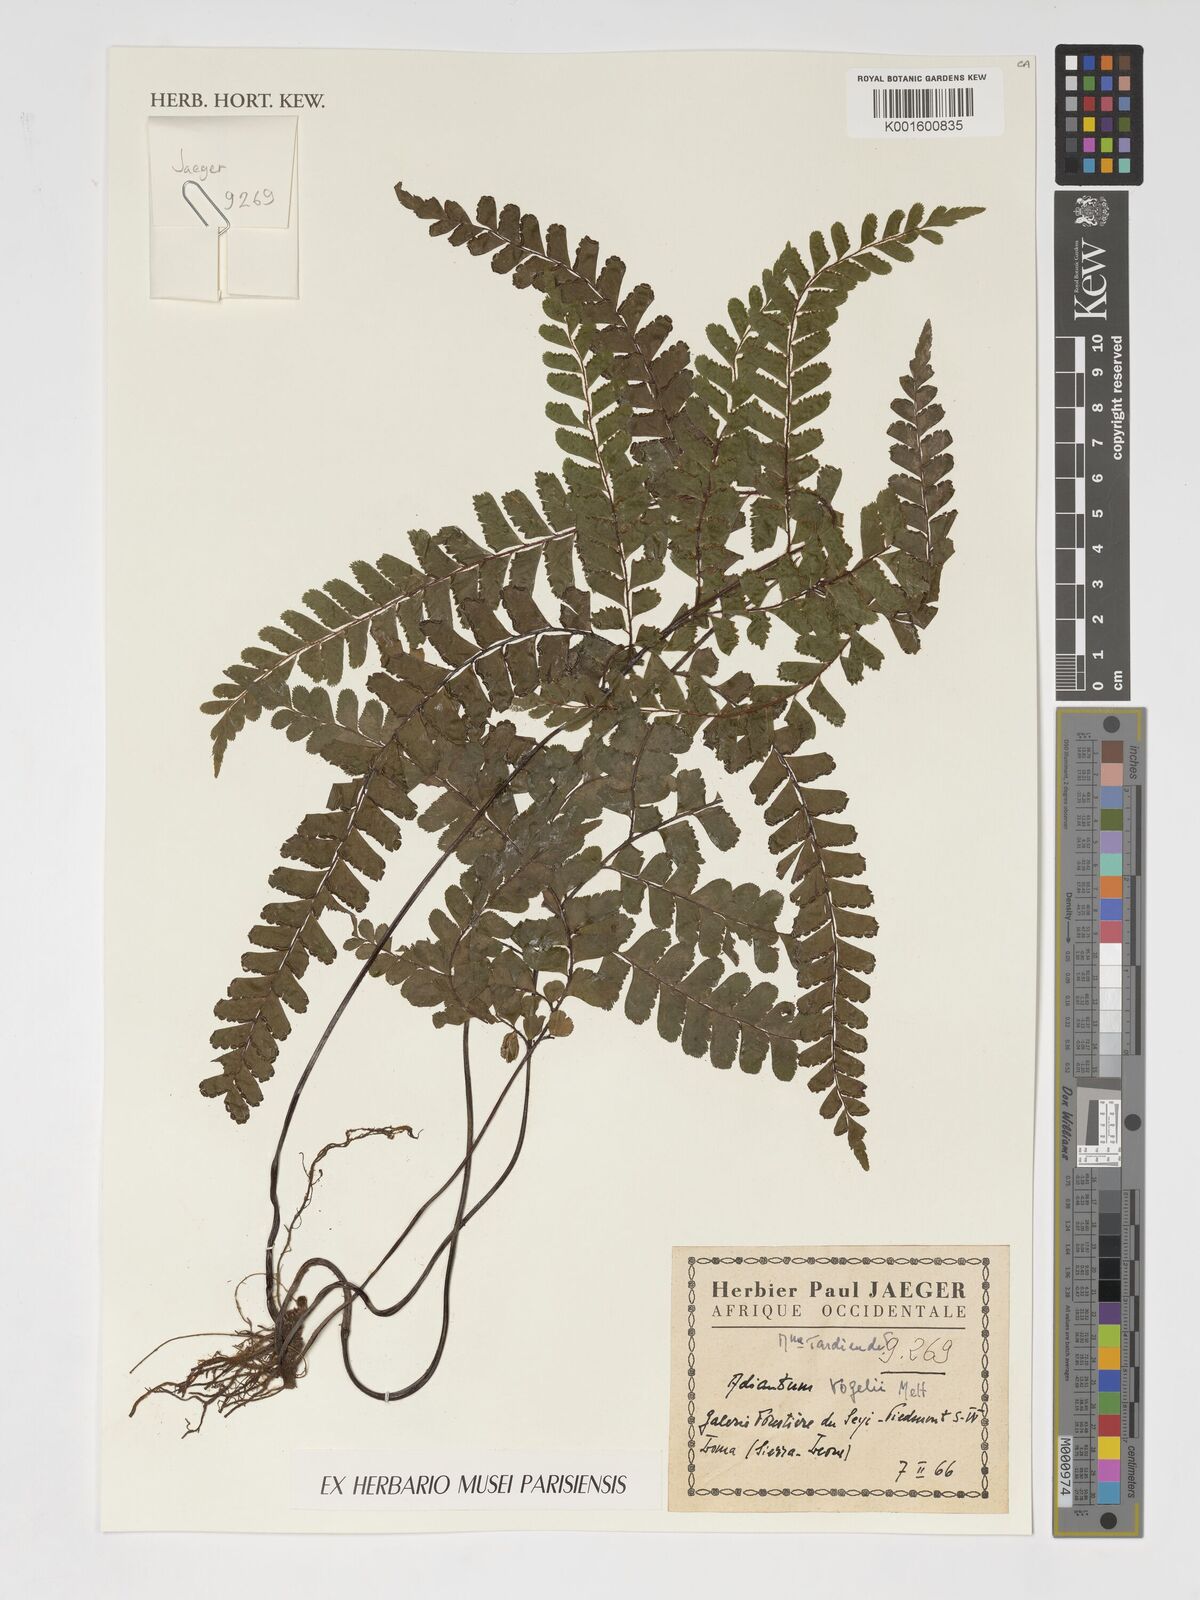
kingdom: Plantae
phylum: Tracheophyta
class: Polypodiopsida
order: Polypodiales
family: Pteridaceae
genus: Adiantum
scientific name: Adiantum vogelii
